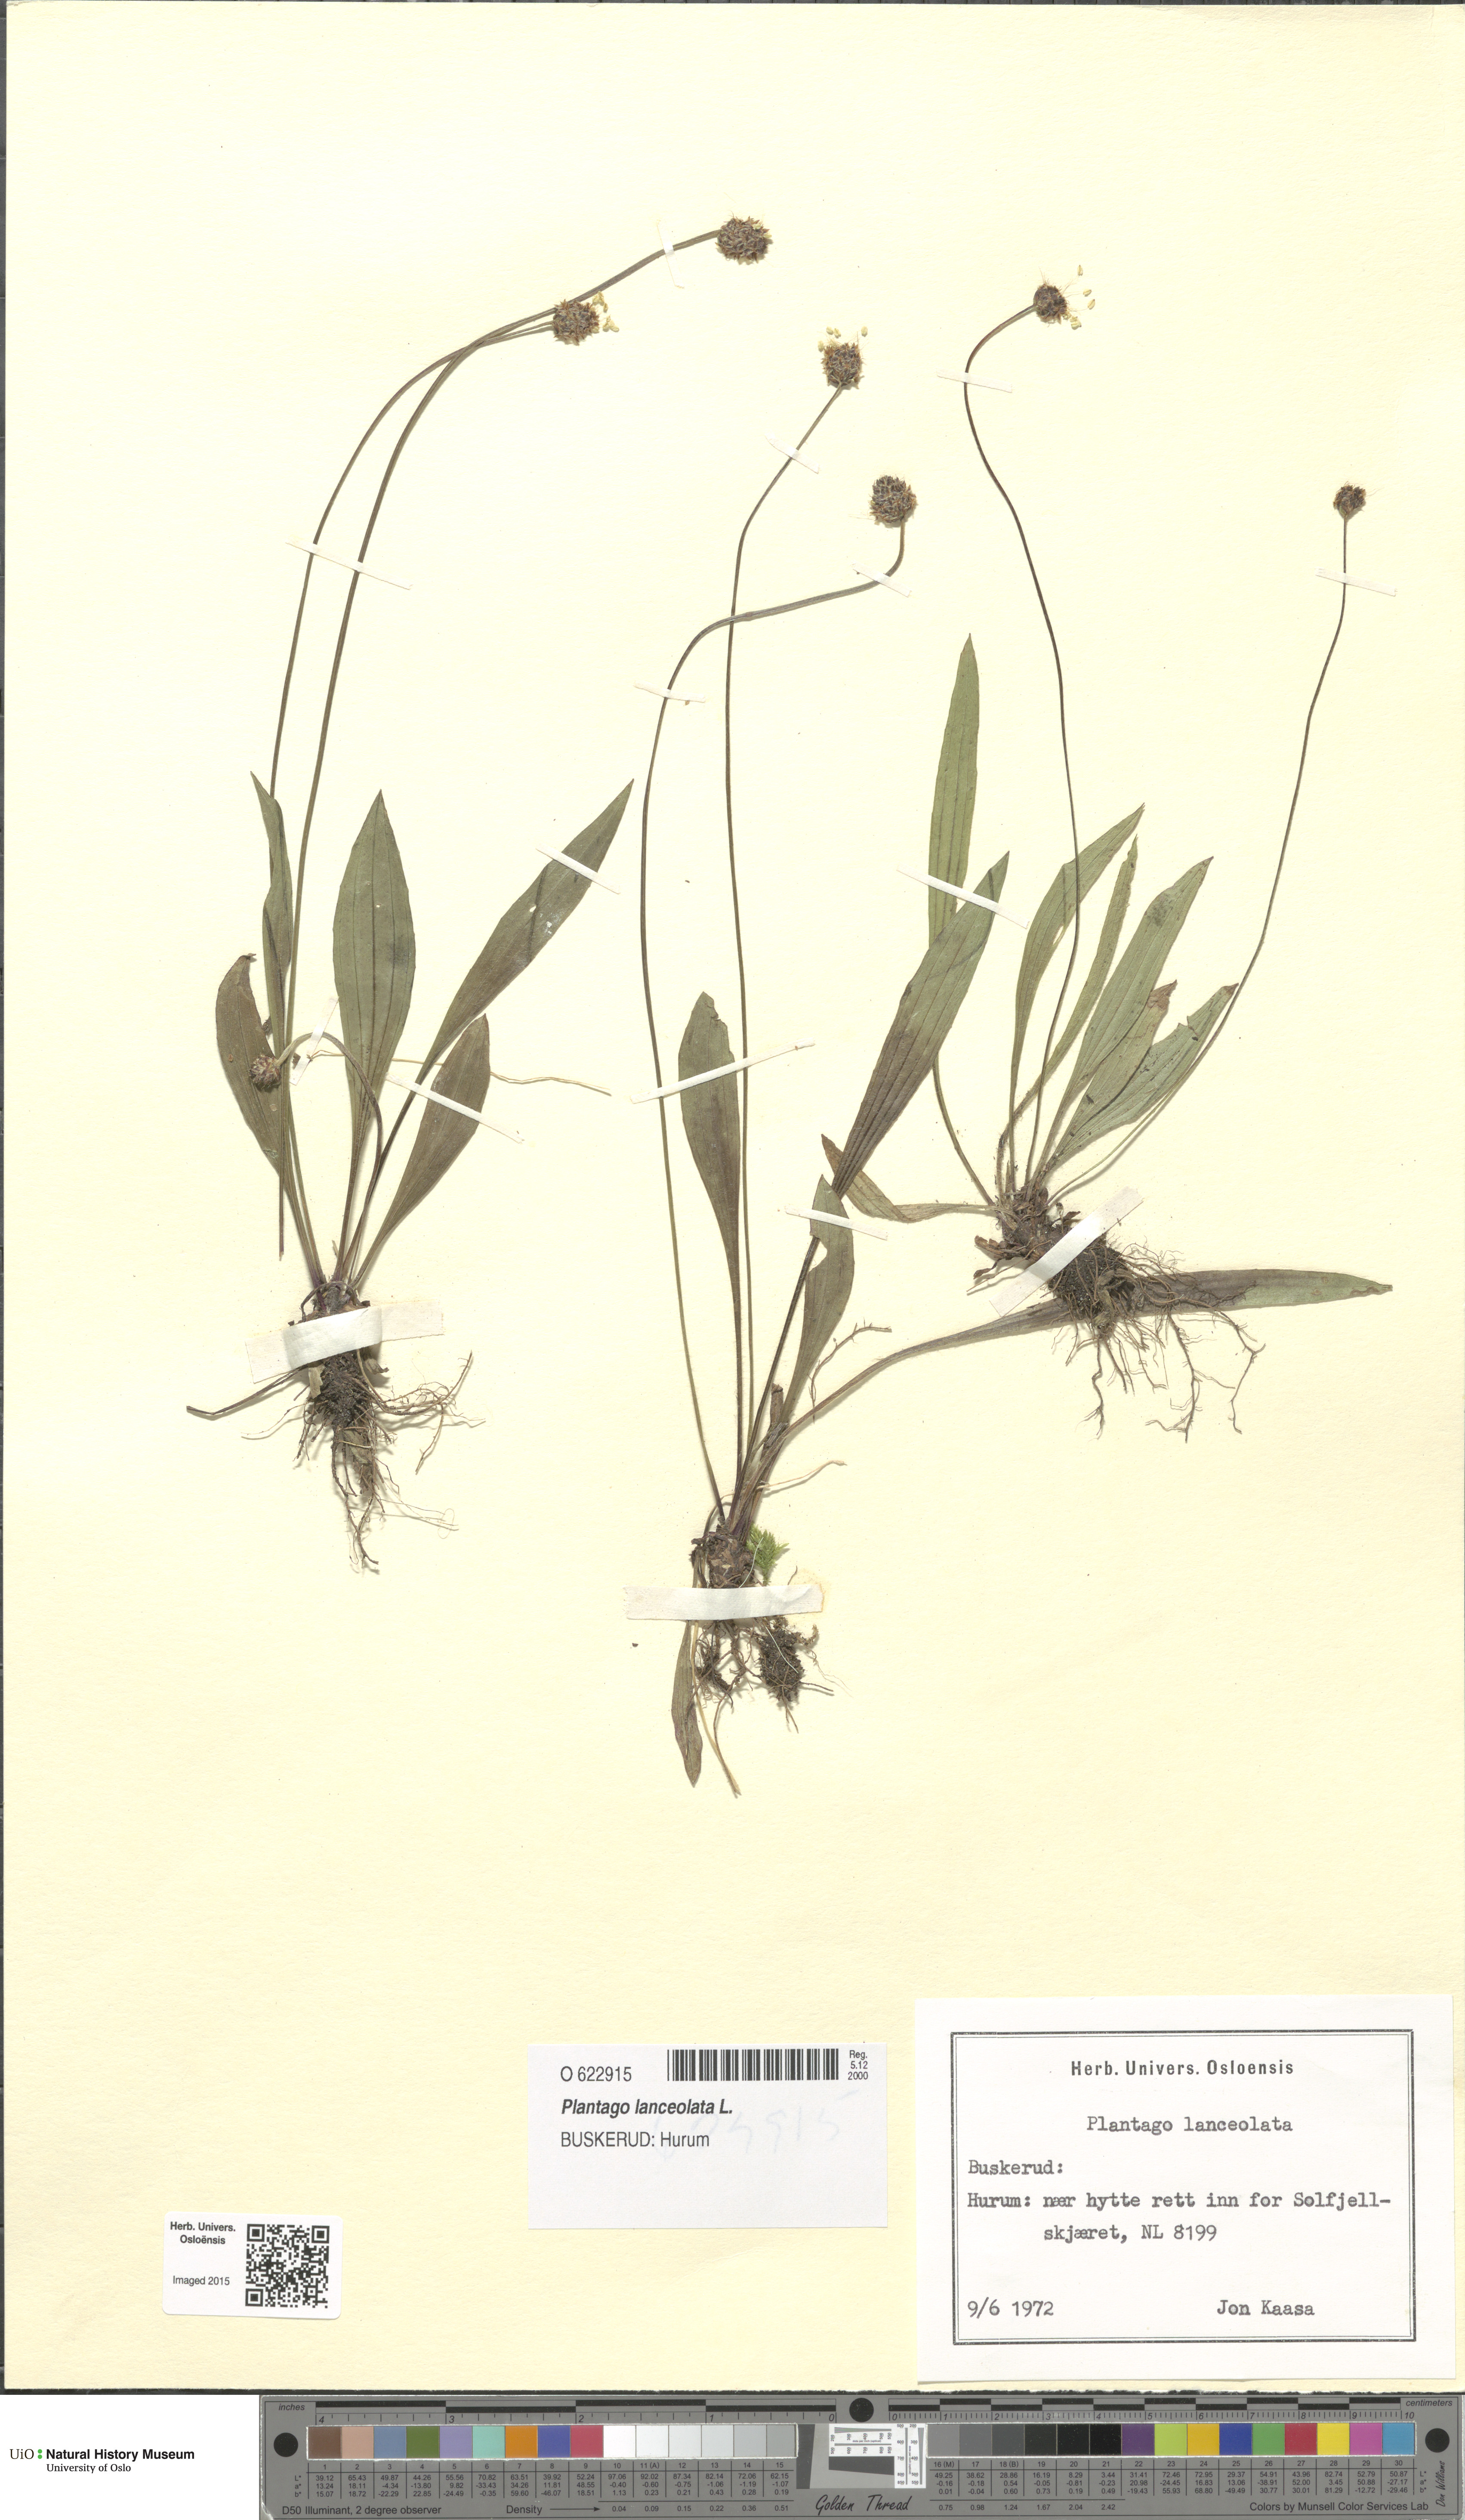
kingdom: Plantae
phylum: Tracheophyta
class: Magnoliopsida
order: Lamiales
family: Plantaginaceae
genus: Plantago
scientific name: Plantago lanceolata
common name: Ribwort plantain
